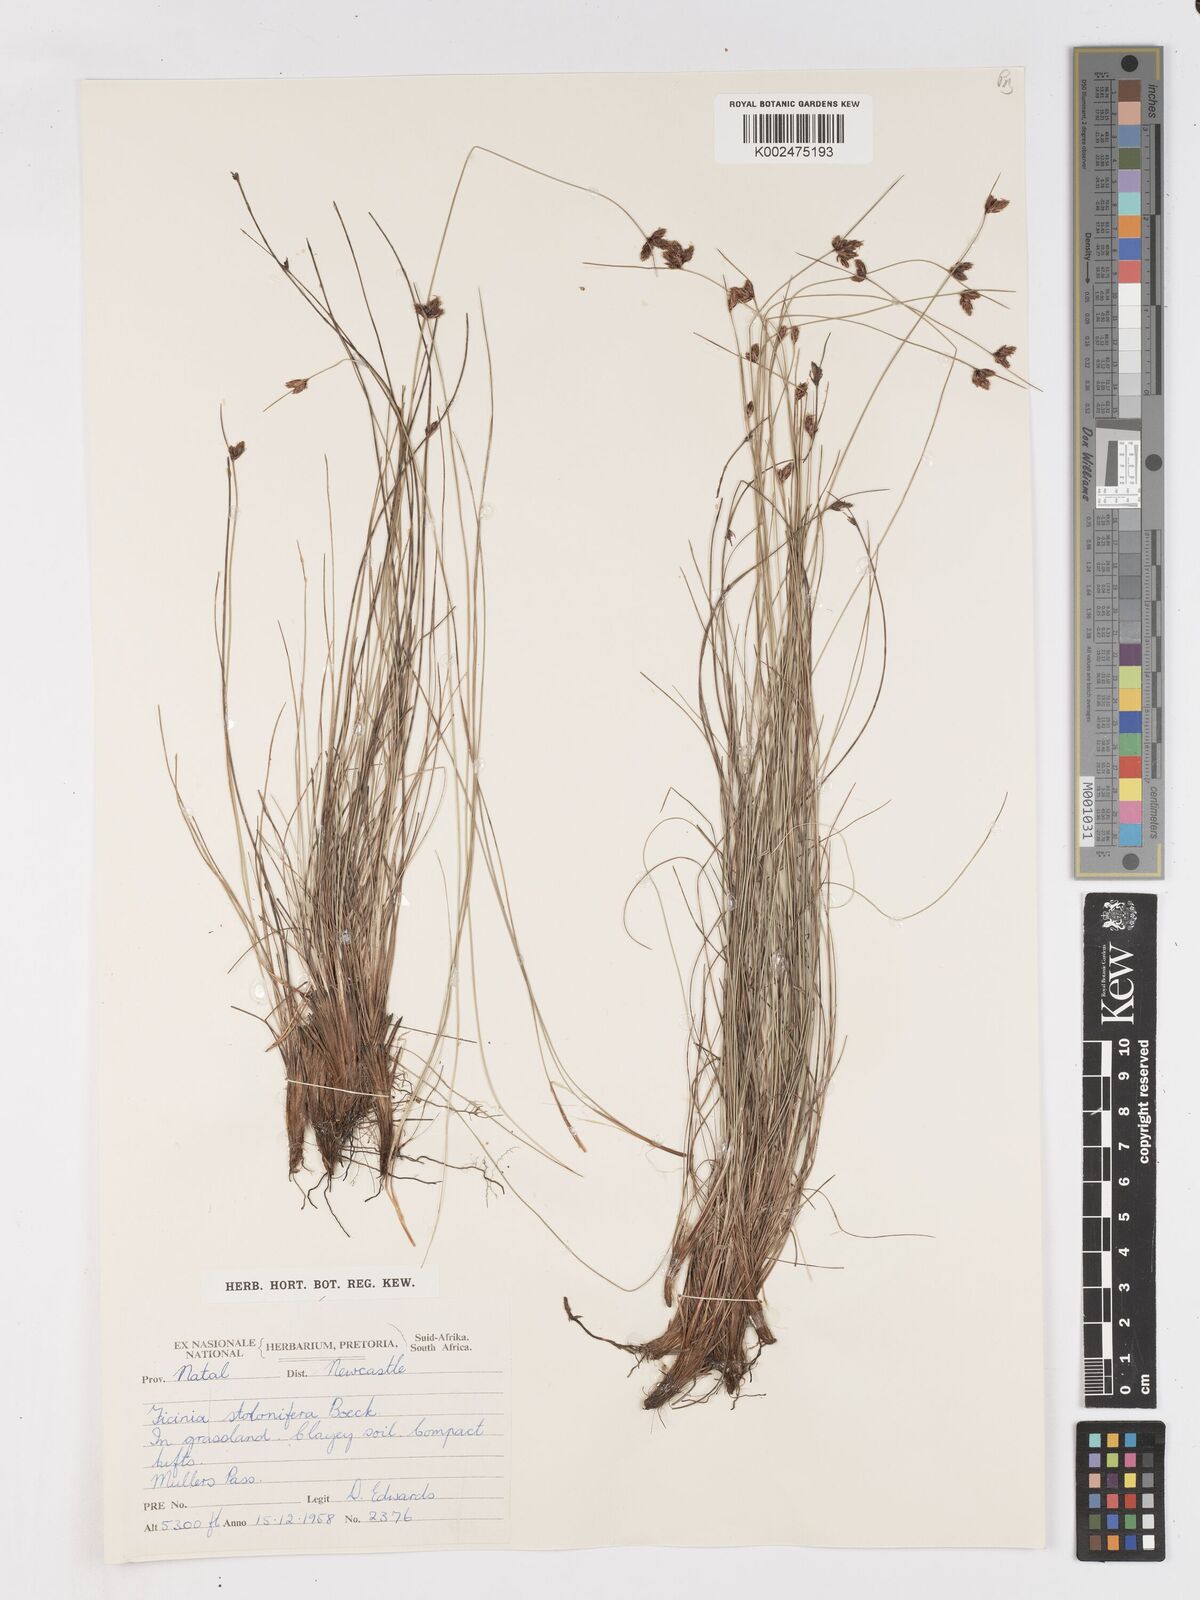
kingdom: Plantae
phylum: Tracheophyta
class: Liliopsida
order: Poales
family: Cyperaceae
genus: Ficinia
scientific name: Ficinia stolonifera
